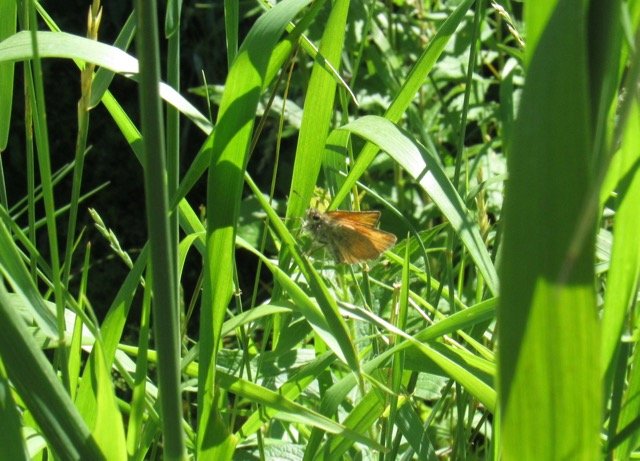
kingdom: Animalia
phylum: Arthropoda
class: Insecta
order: Lepidoptera
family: Hesperiidae
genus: Thymelicus
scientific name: Thymelicus lineola
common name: European Skipper
